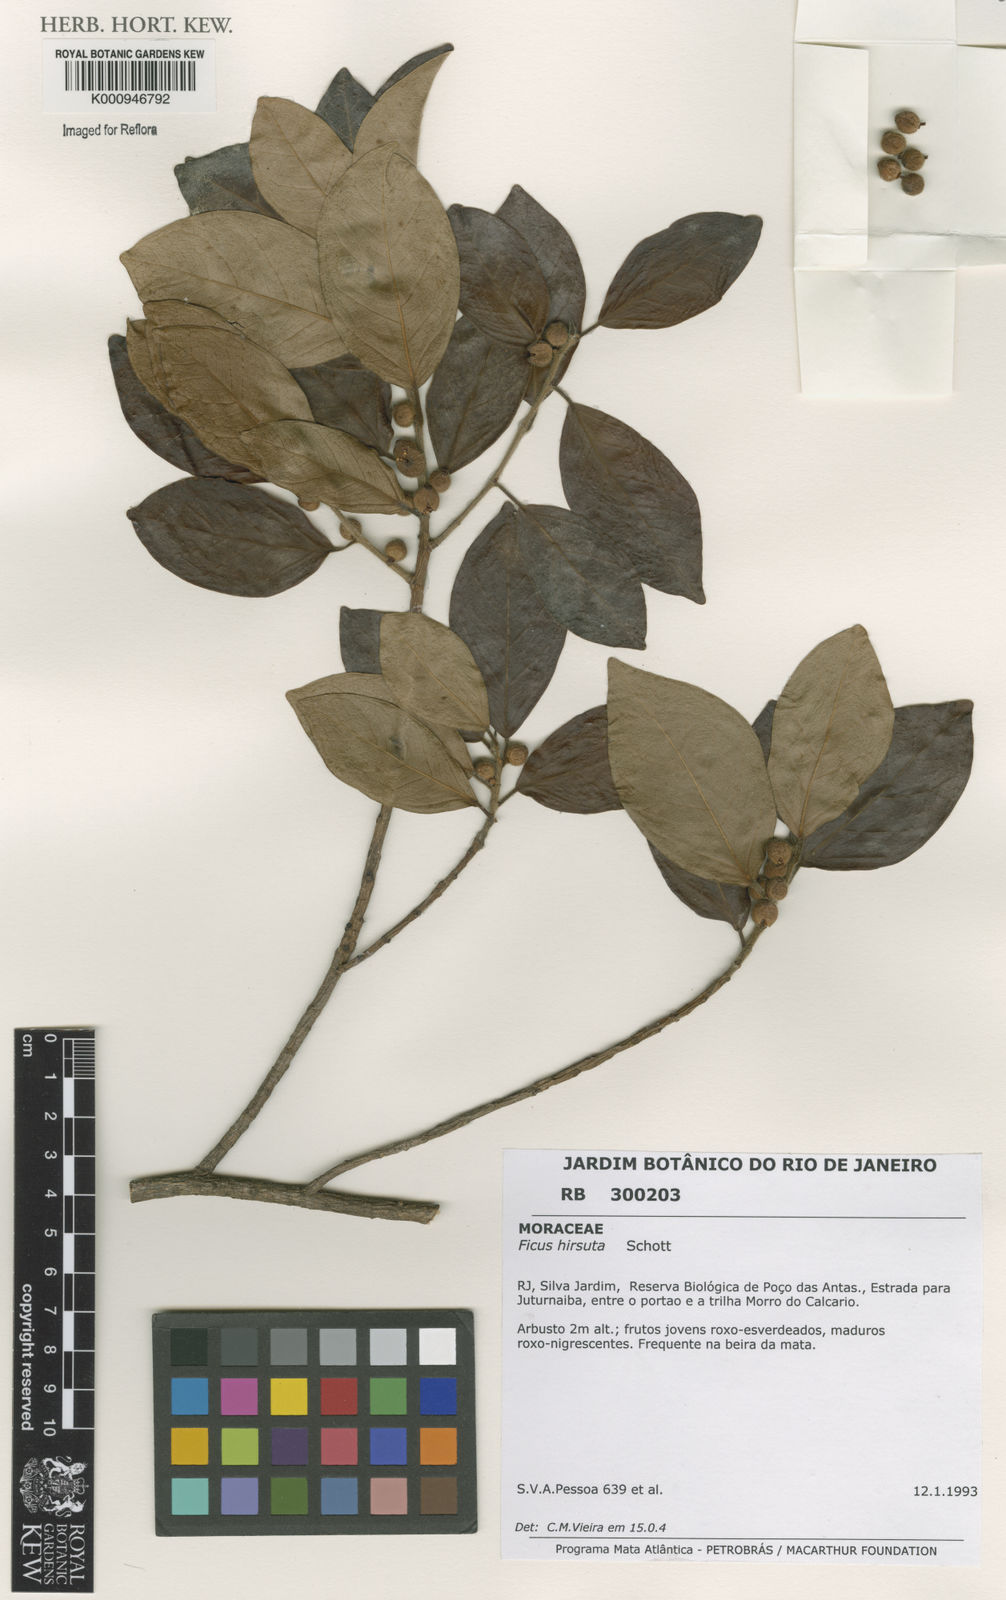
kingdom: Plantae
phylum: Tracheophyta
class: Magnoliopsida
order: Rosales
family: Moraceae
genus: Ficus
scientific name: Ficus hirsuta
